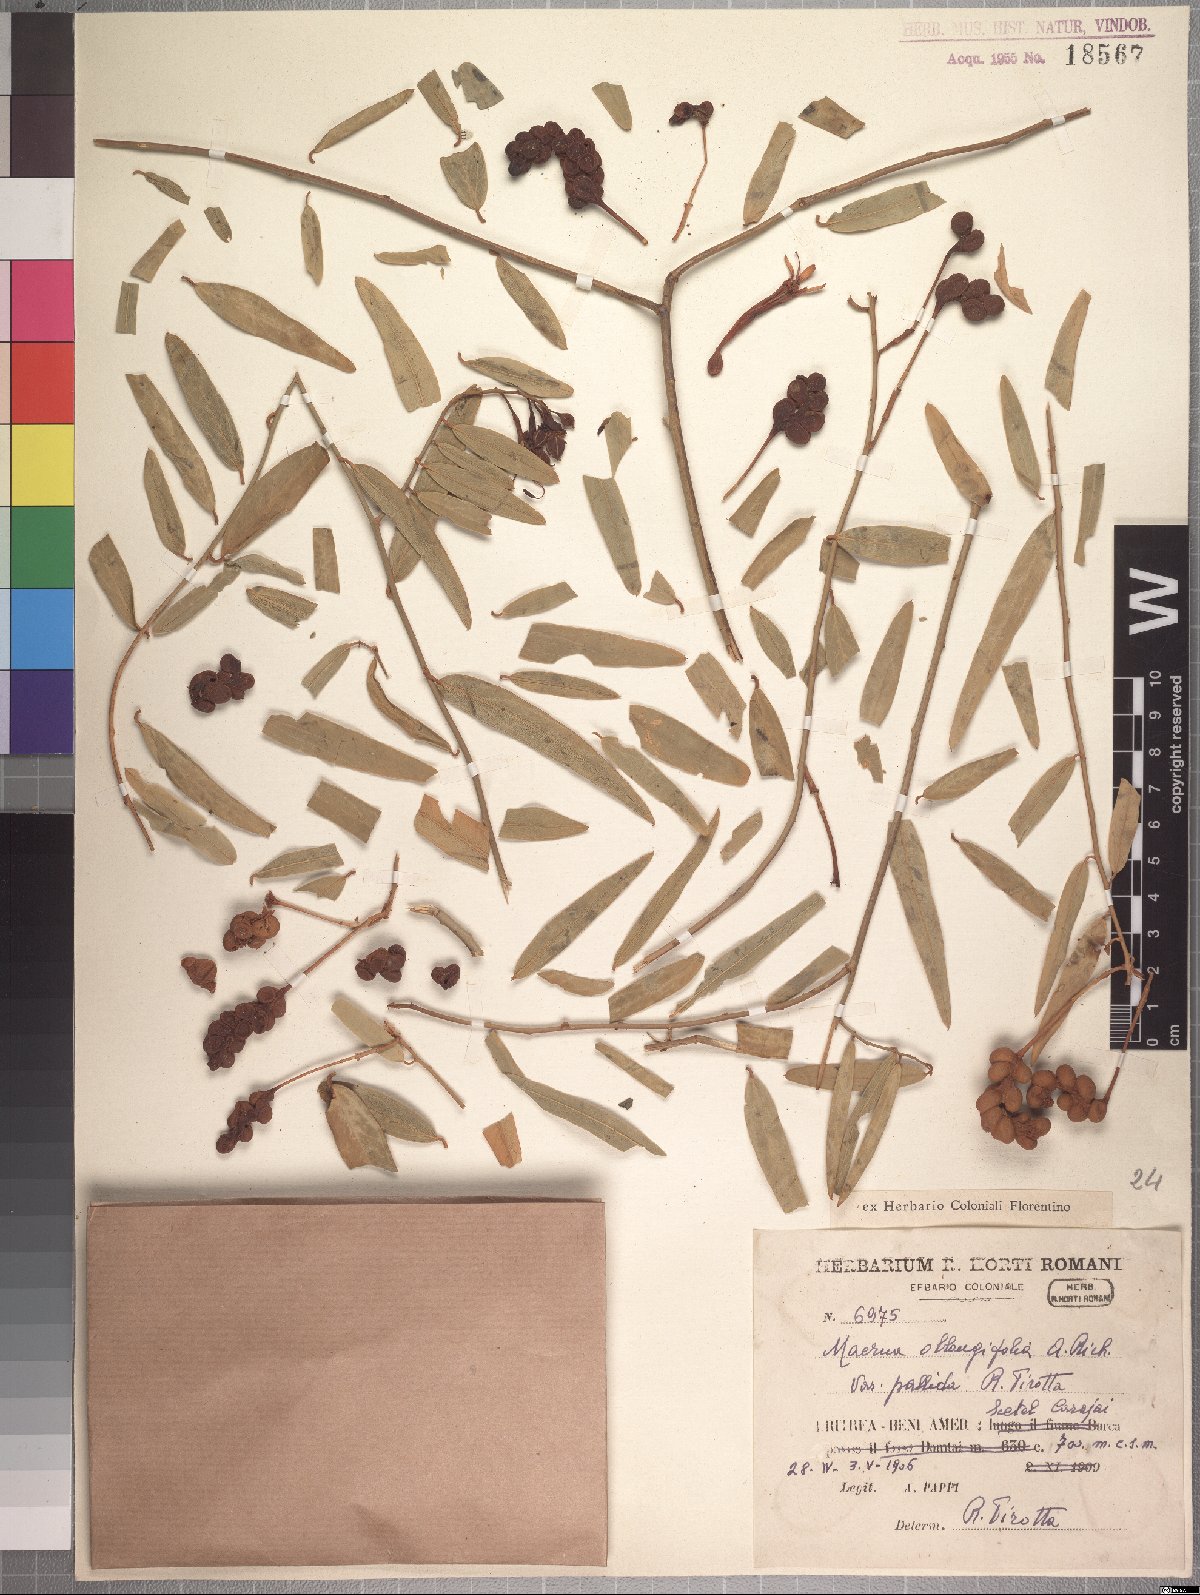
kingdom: Plantae
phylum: Tracheophyta
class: Magnoliopsida
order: Brassicales
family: Capparaceae
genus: Maerua
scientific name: Maerua oblongifolia
